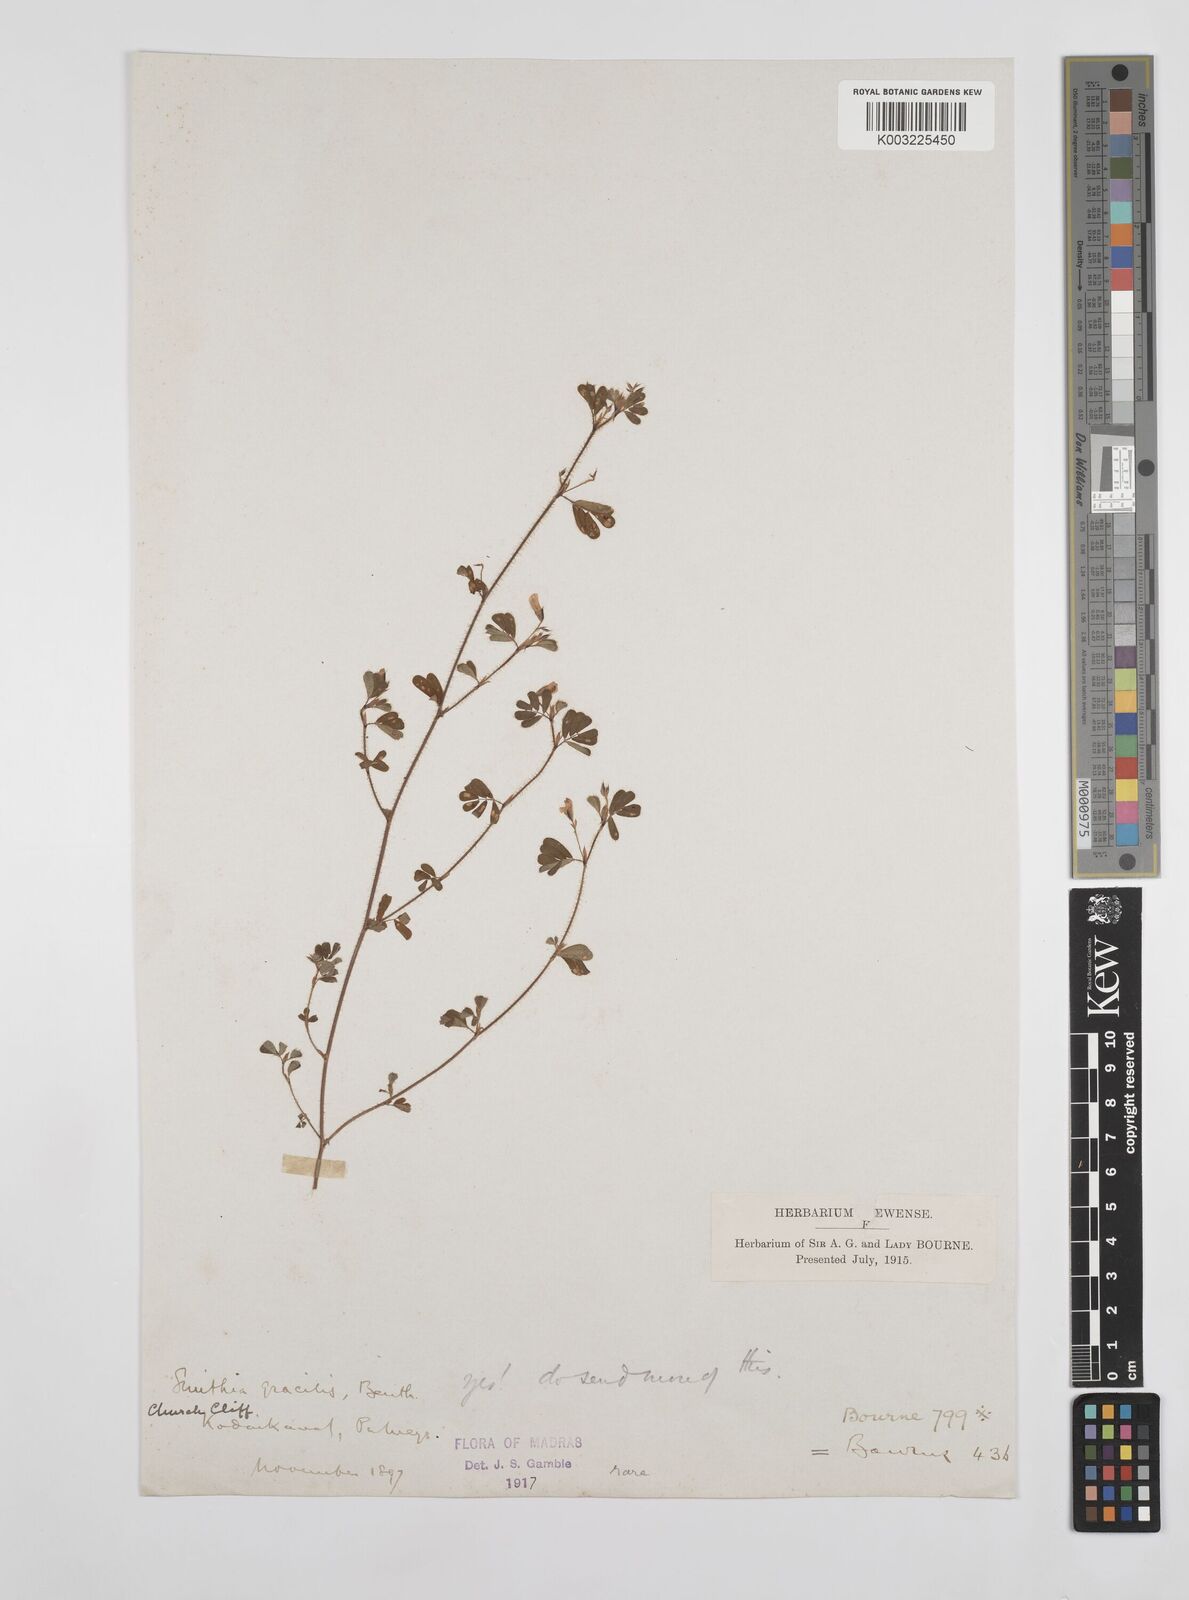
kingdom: Plantae
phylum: Tracheophyta
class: Magnoliopsida
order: Fabales
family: Fabaceae
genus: Smithia
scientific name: Smithia gracilis
